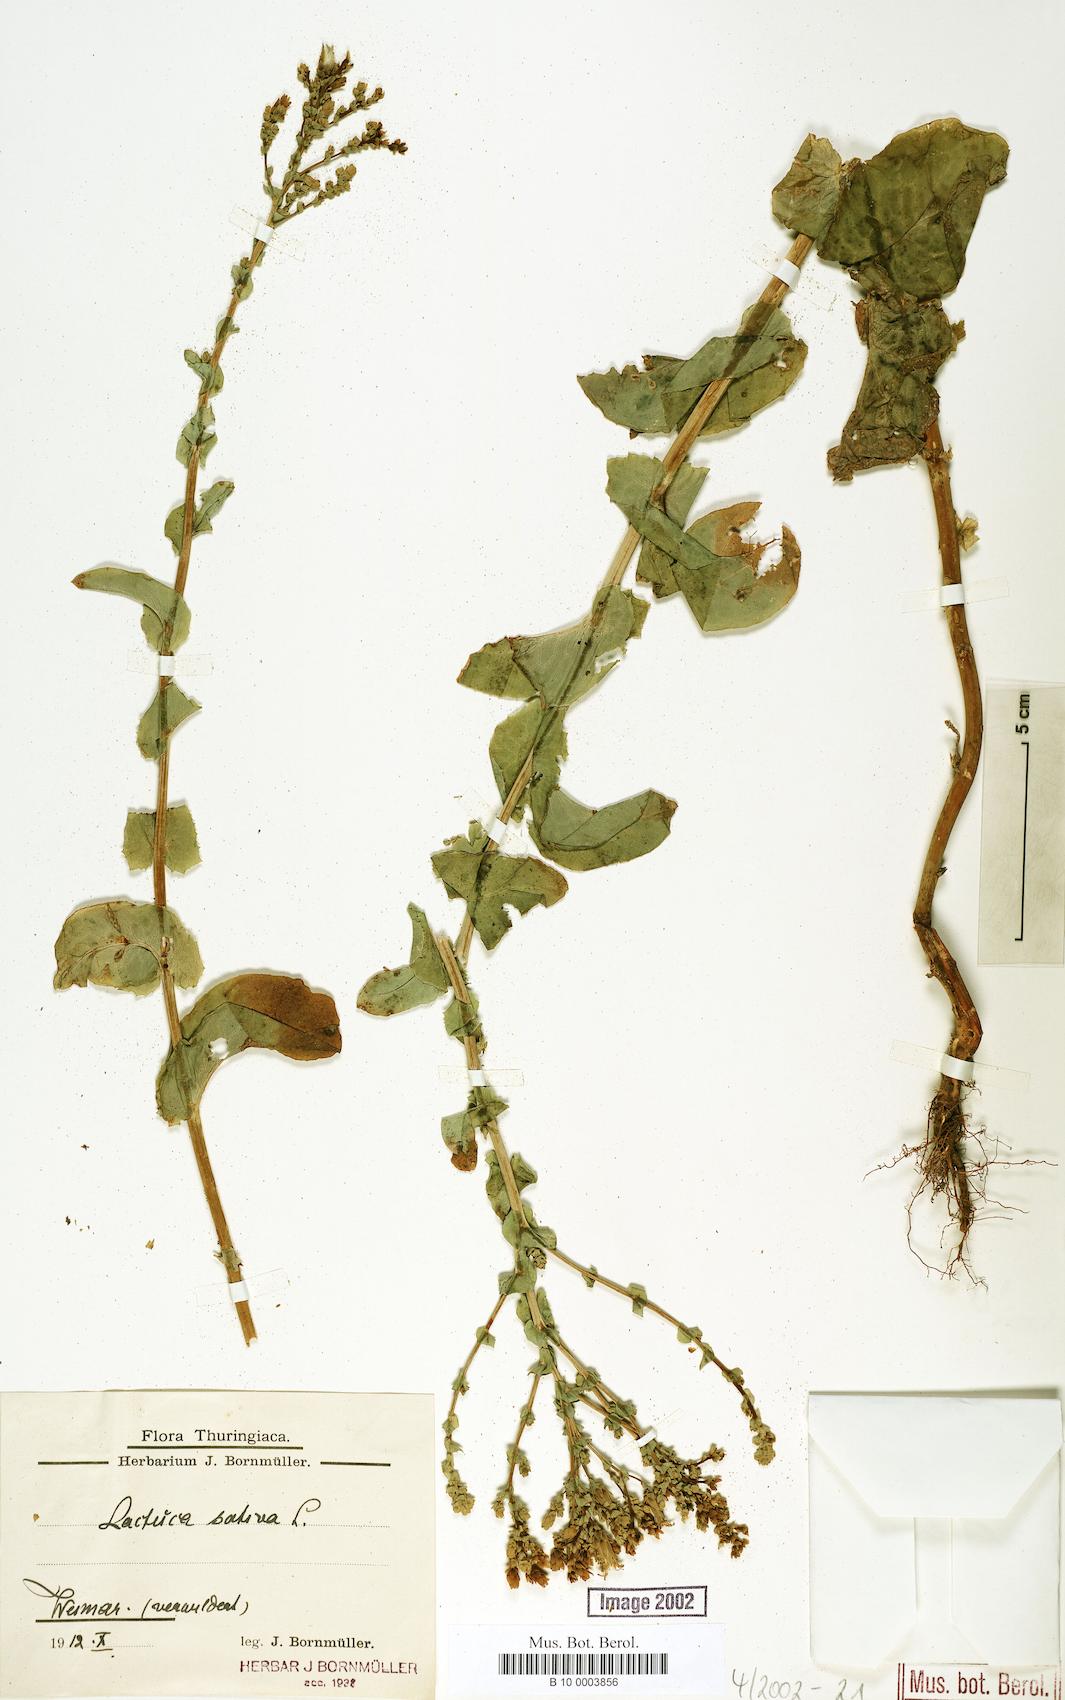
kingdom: Plantae
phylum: Tracheophyta
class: Magnoliopsida
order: Asterales
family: Asteraceae
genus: Lactuca
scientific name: Lactuca sativa
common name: Garden lettuce
